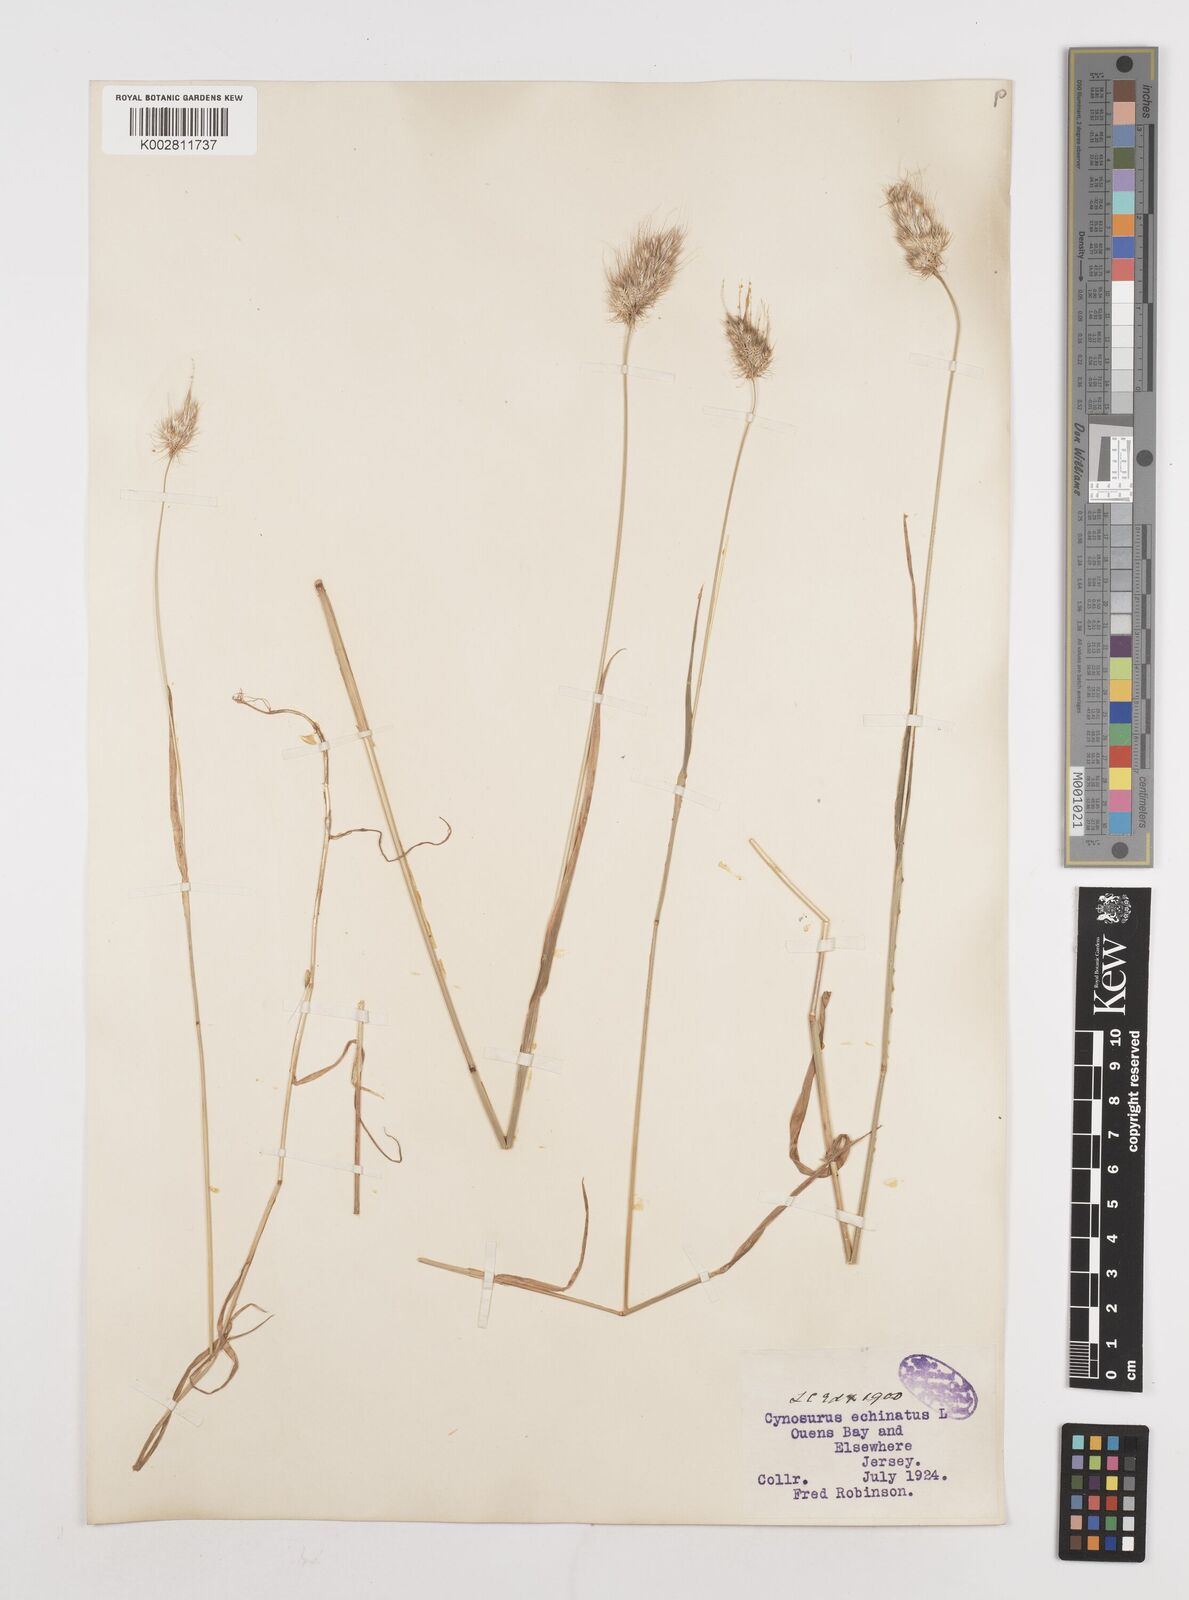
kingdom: Plantae
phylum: Tracheophyta
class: Liliopsida
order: Poales
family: Poaceae
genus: Cynosurus
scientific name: Cynosurus echinatus
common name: Rough dog's-tail
